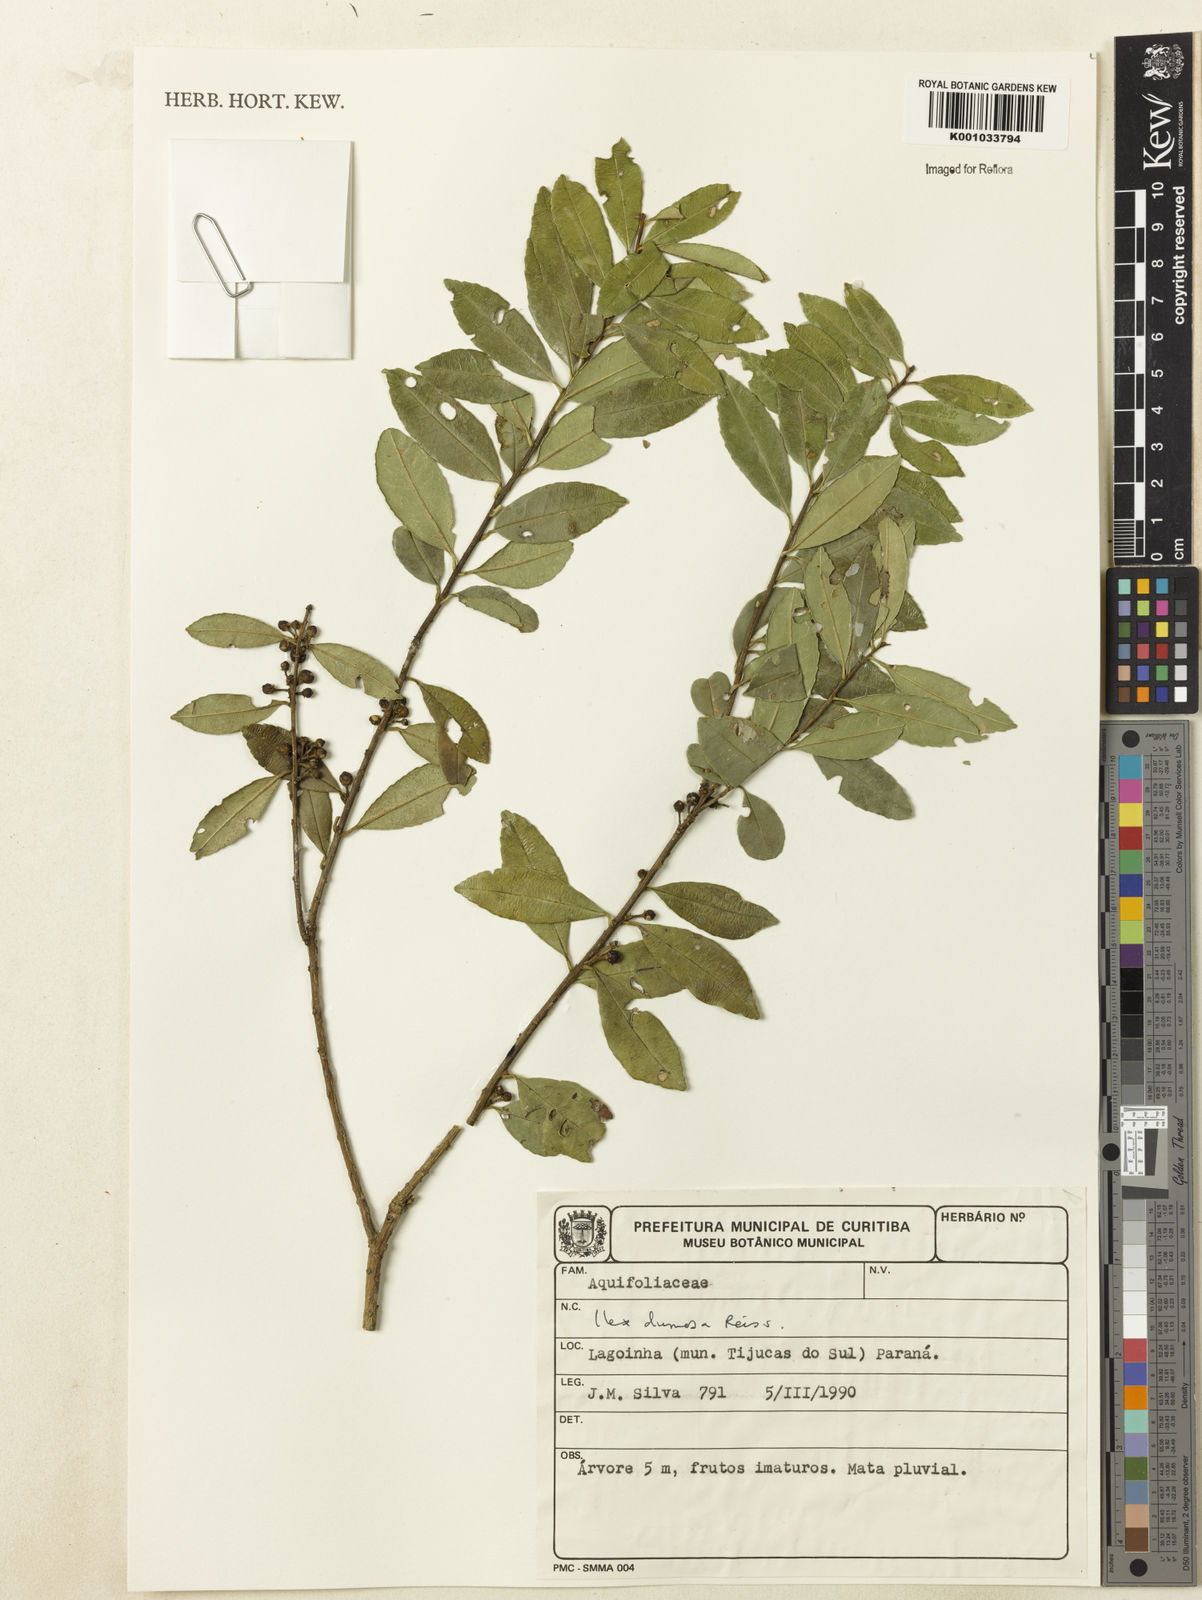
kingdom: Plantae
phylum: Tracheophyta
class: Magnoliopsida
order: Aquifoliales
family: Aquifoliaceae
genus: Ilex
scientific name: Ilex dumosa
